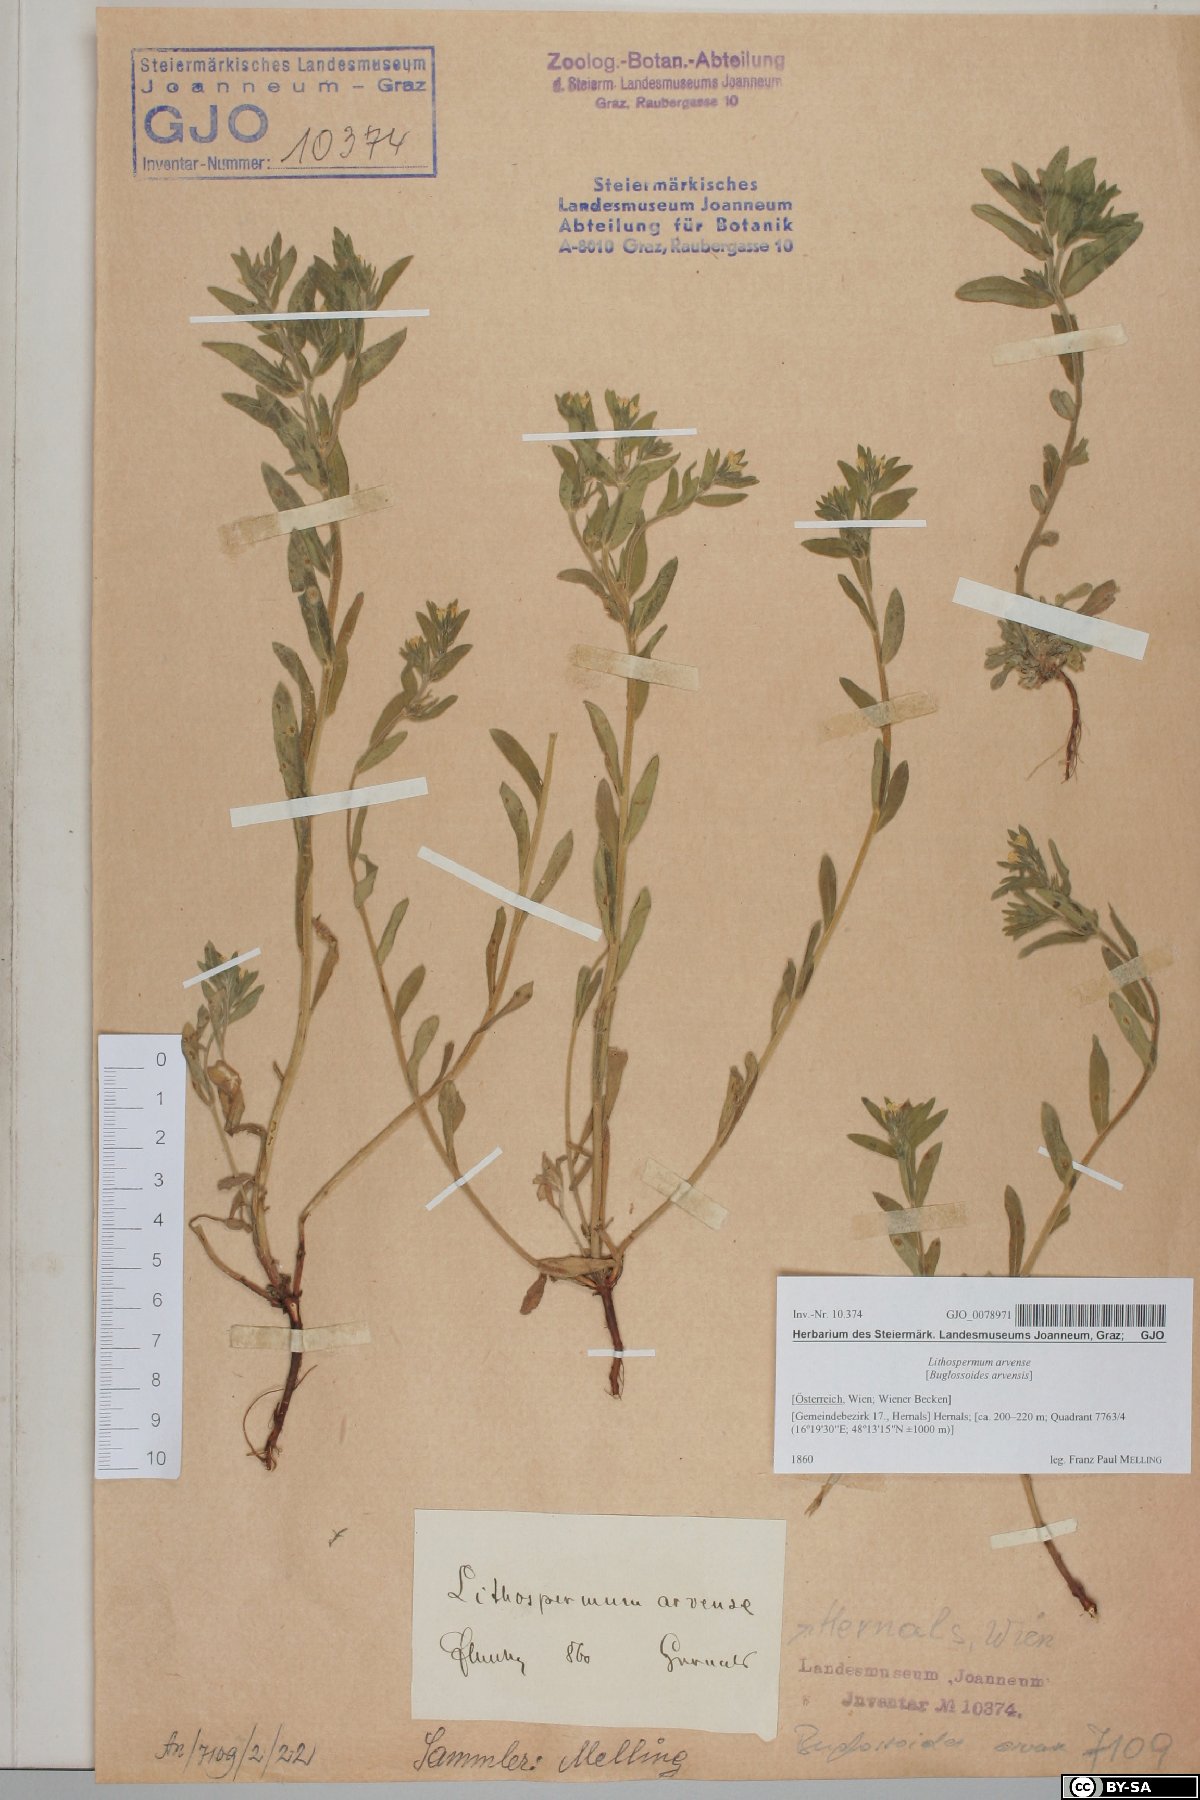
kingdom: Plantae
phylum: Tracheophyta
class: Magnoliopsida
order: Boraginales
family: Boraginaceae
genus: Buglossoides
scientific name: Buglossoides arvensis
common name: Corn gromwell
